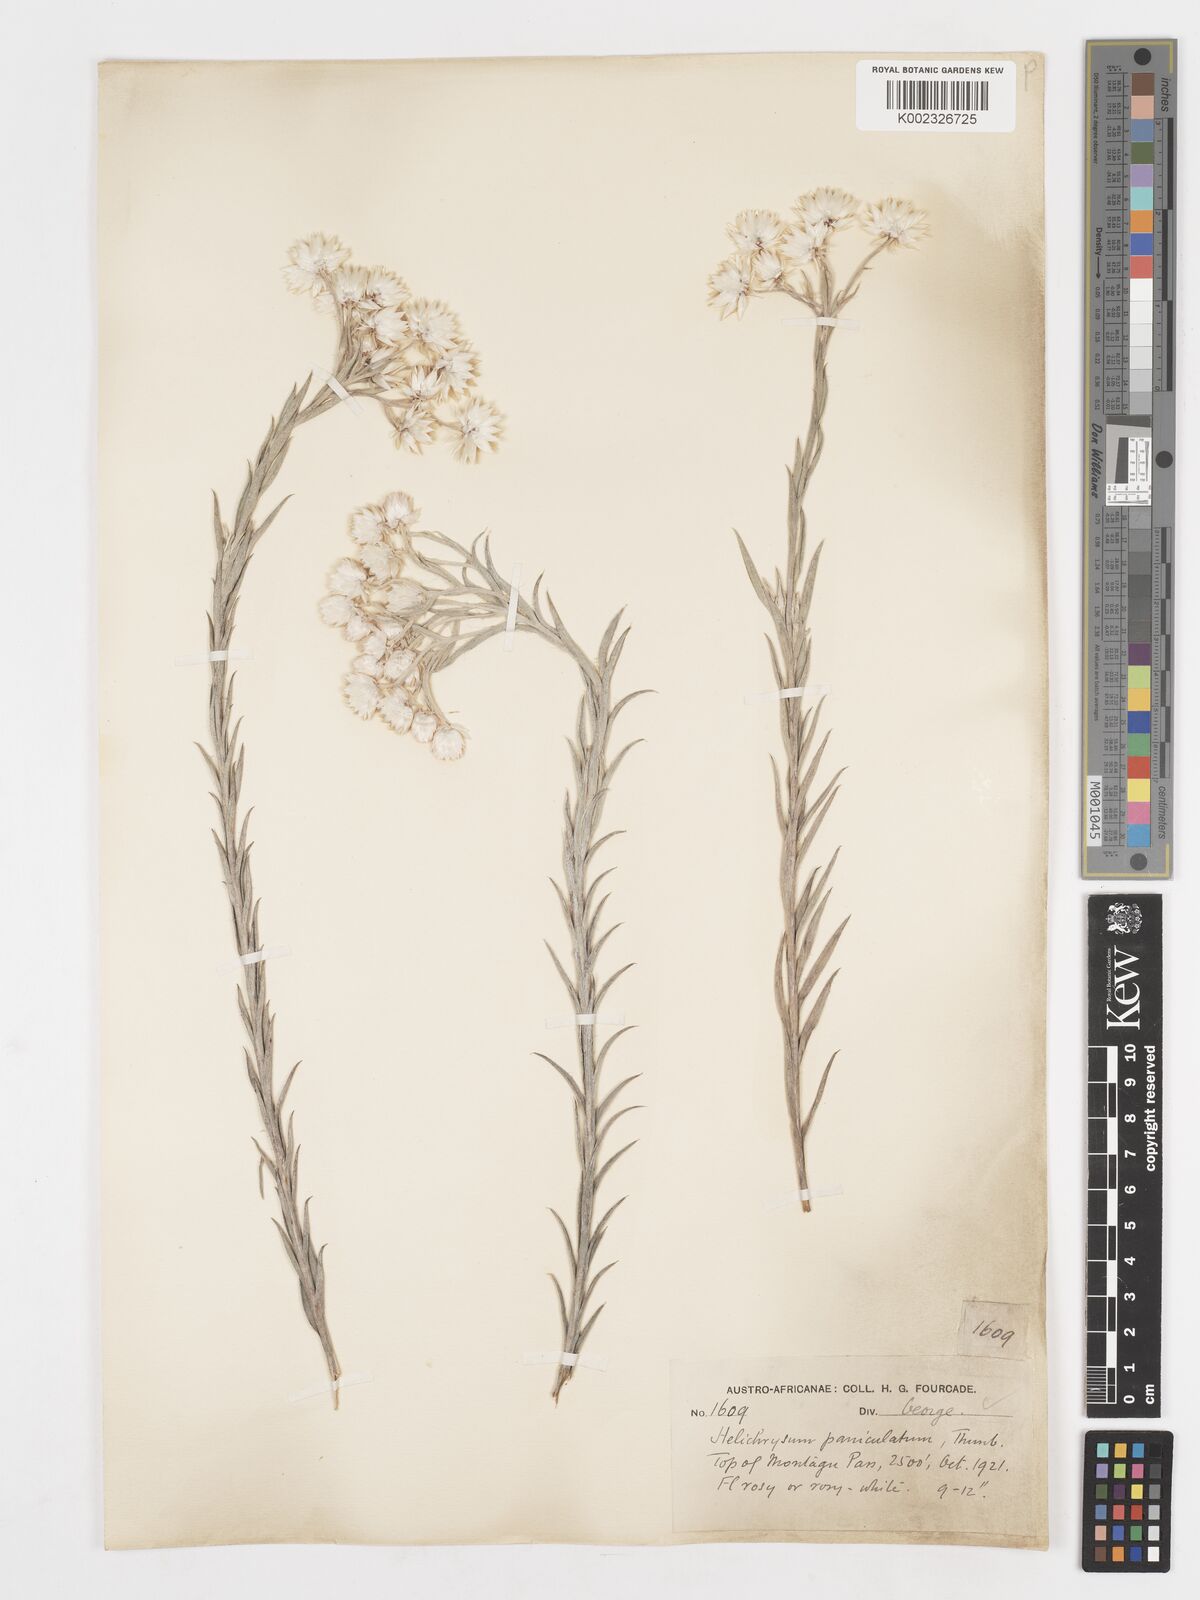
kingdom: Plantae
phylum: Tracheophyta
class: Magnoliopsida
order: Asterales
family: Asteraceae
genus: Achyranthemum
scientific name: Achyranthemum paniculatum
